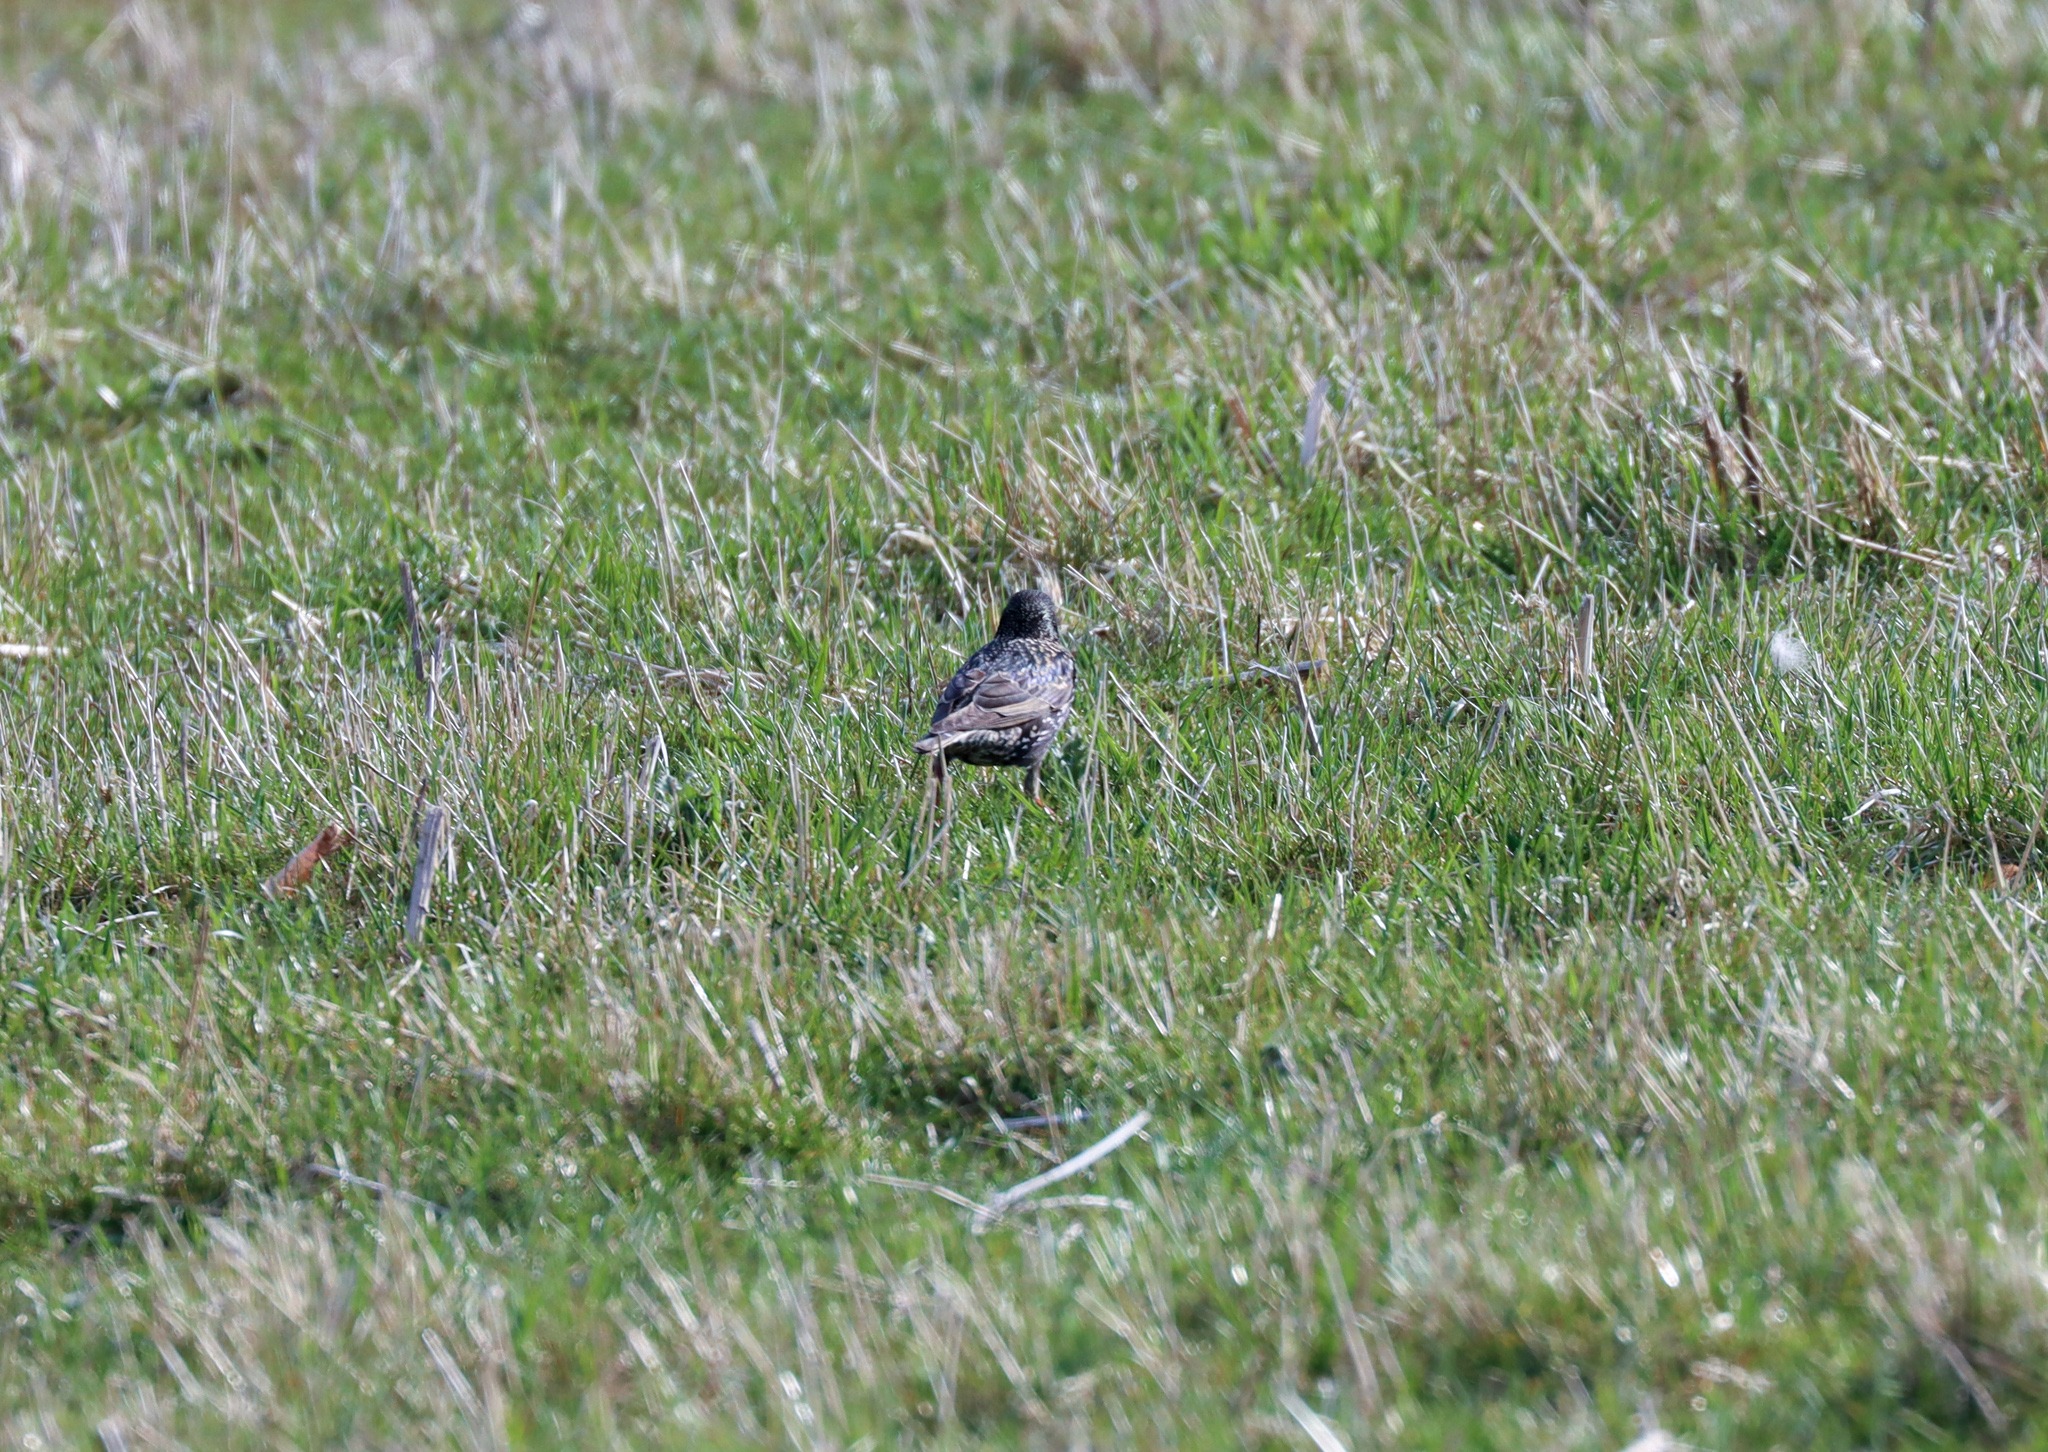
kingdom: Animalia
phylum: Chordata
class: Aves
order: Passeriformes
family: Sturnidae
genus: Sturnus
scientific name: Sturnus vulgaris
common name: Stær
